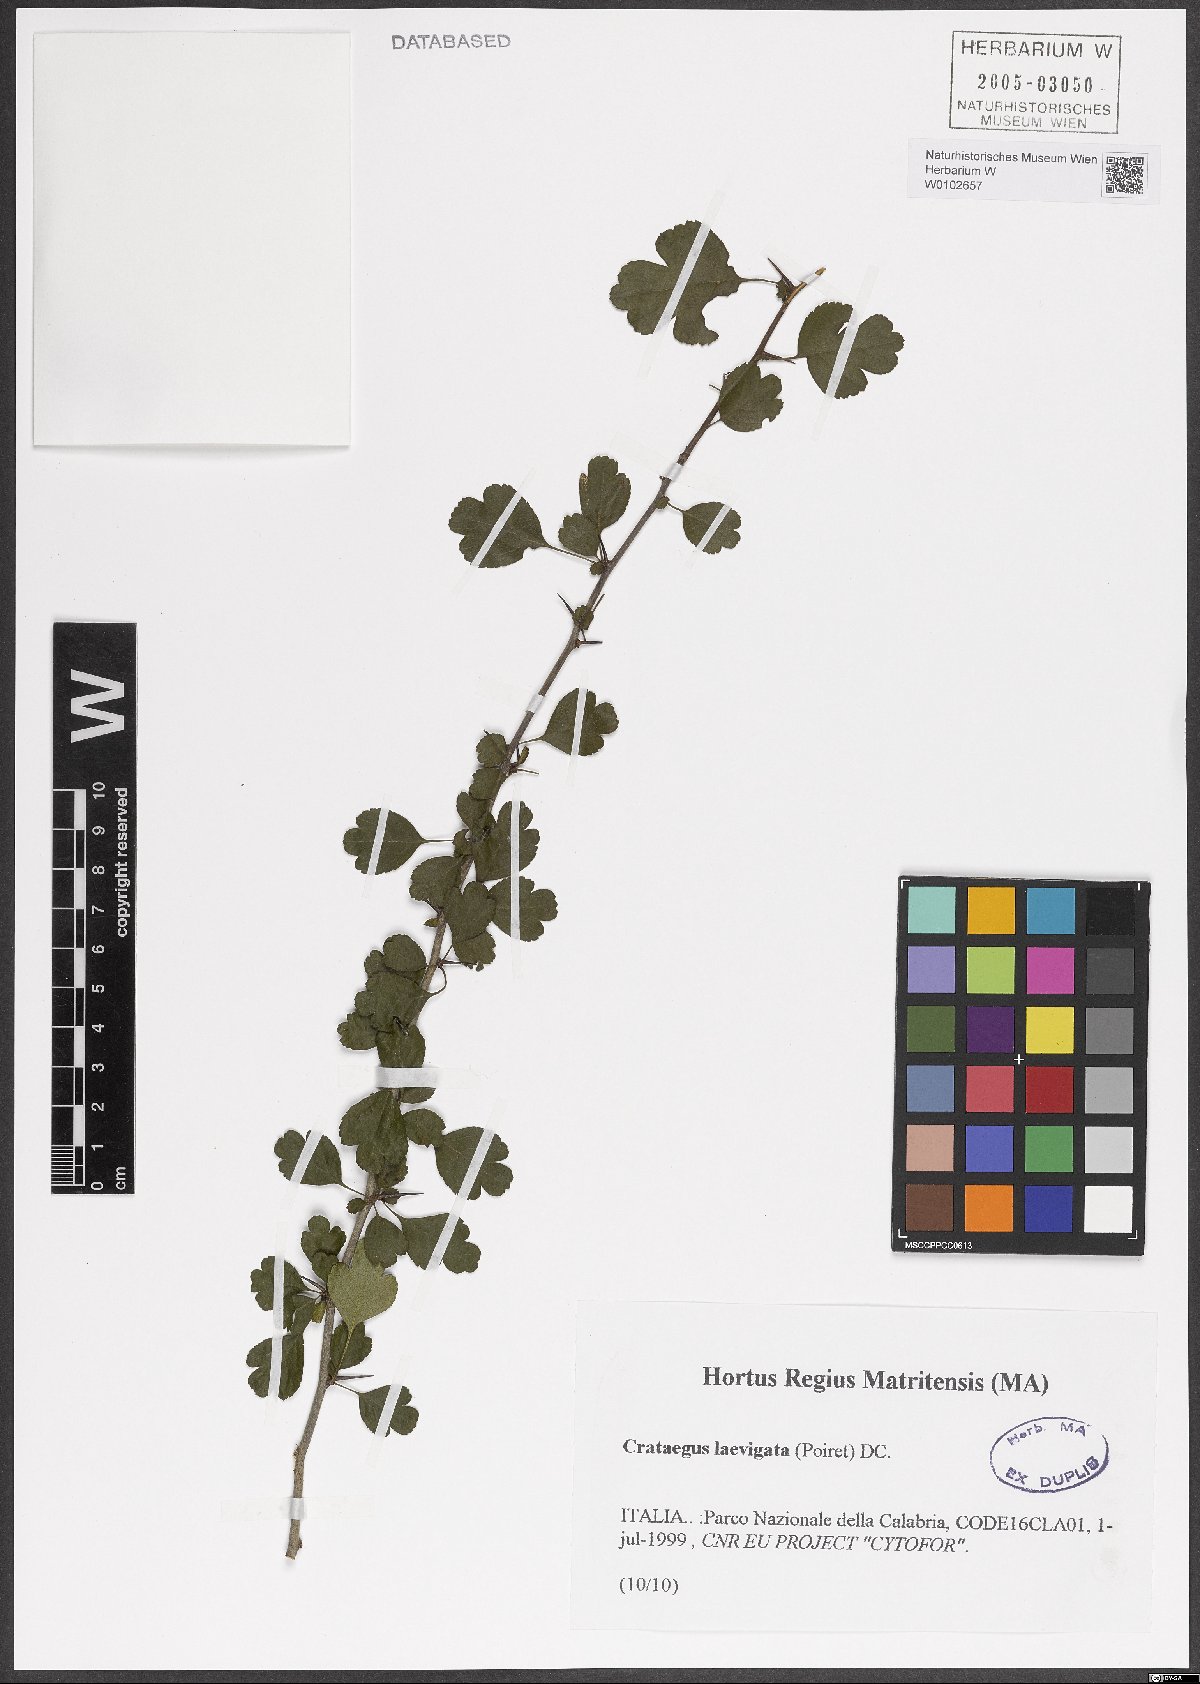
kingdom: Plantae
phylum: Tracheophyta
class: Magnoliopsida
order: Rosales
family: Rosaceae
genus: Crataegus
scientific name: Crataegus laevigata
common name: Midland hawthorn
